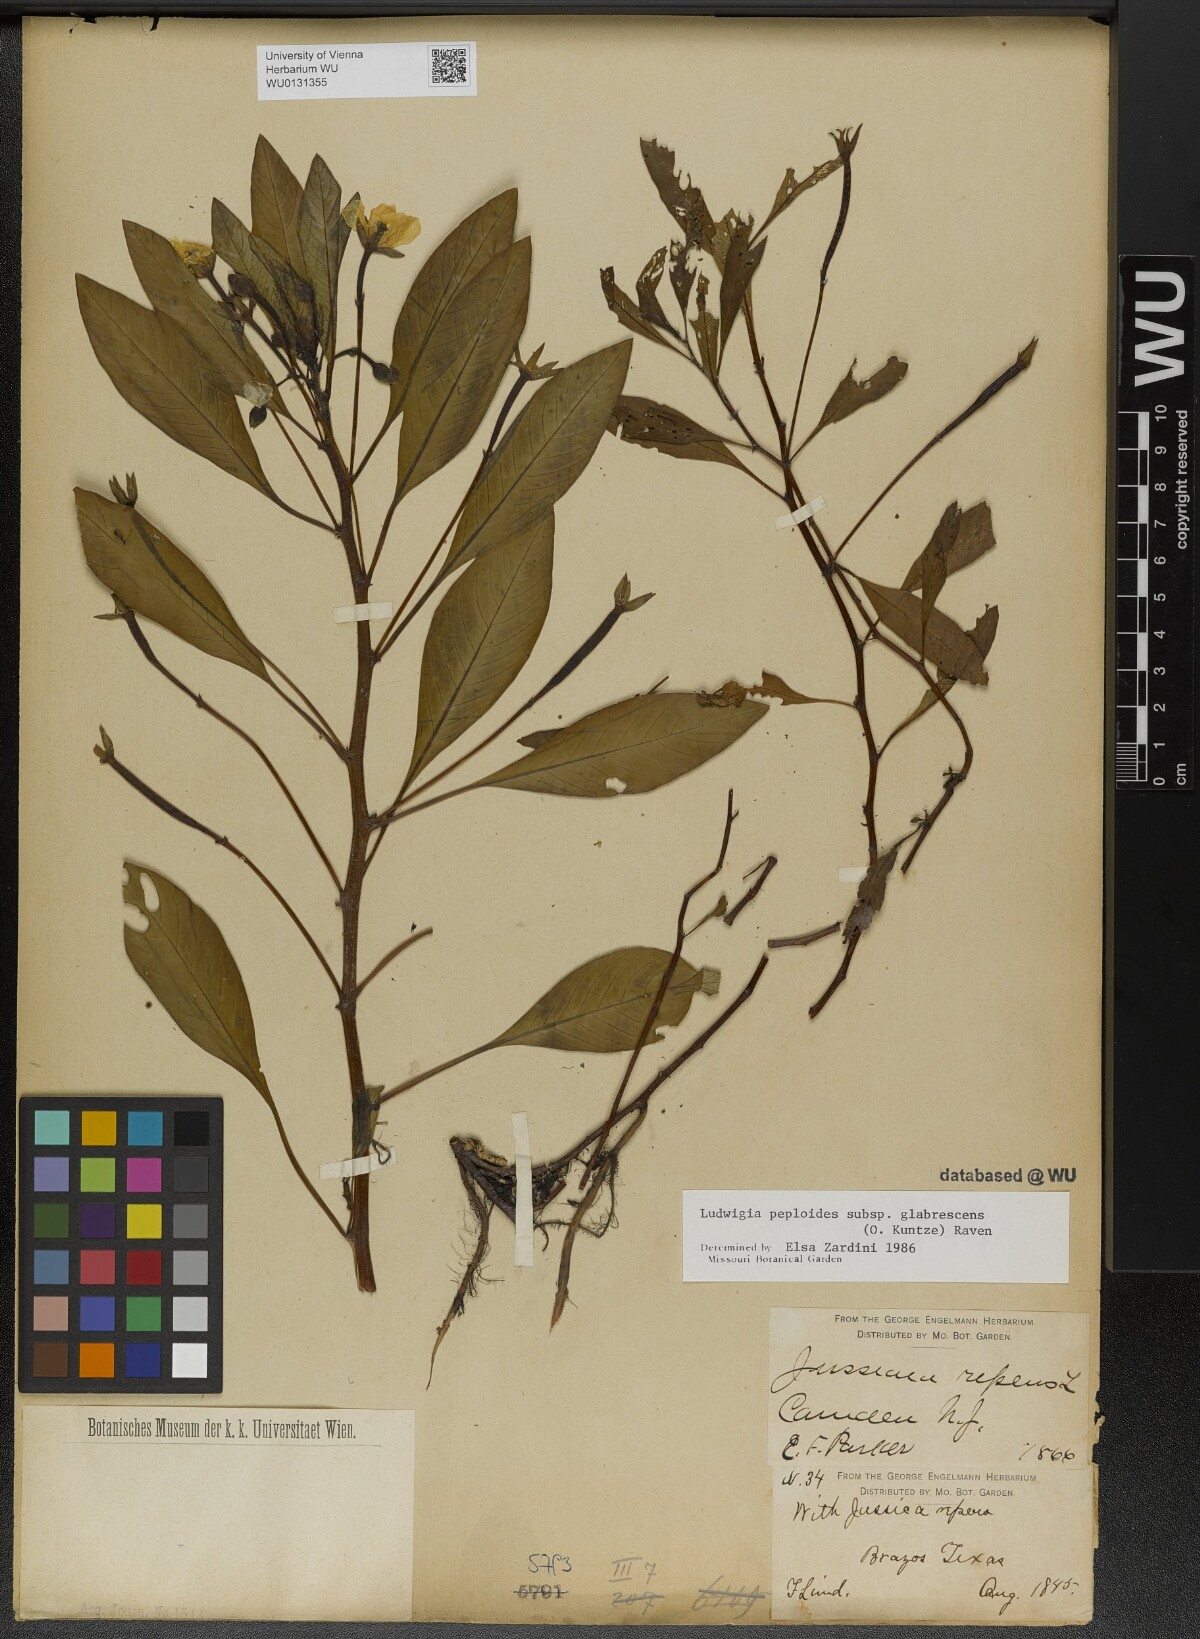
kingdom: Plantae
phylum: Tracheophyta
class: Magnoliopsida
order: Myrtales
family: Onagraceae
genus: Ludwigia
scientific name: Ludwigia peploides
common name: Floating primrose-willow
